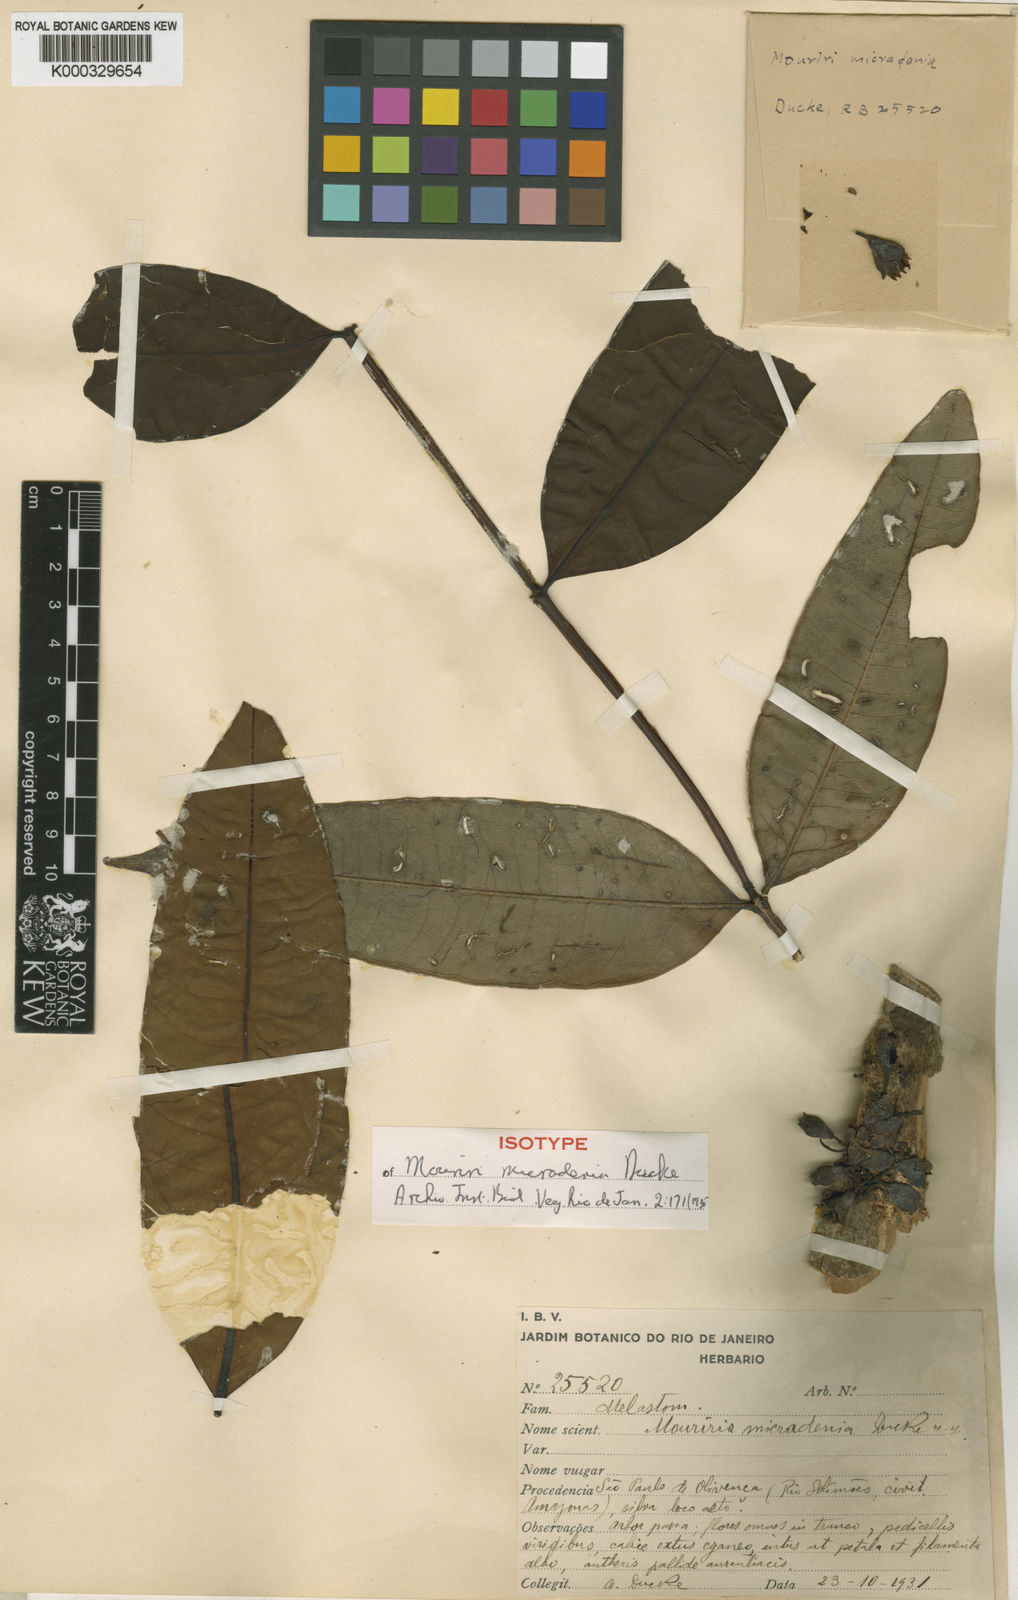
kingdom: Plantae
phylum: Tracheophyta
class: Magnoliopsida
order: Myrtales
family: Melastomataceae
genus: Mouriri
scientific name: Mouriri micradenia
